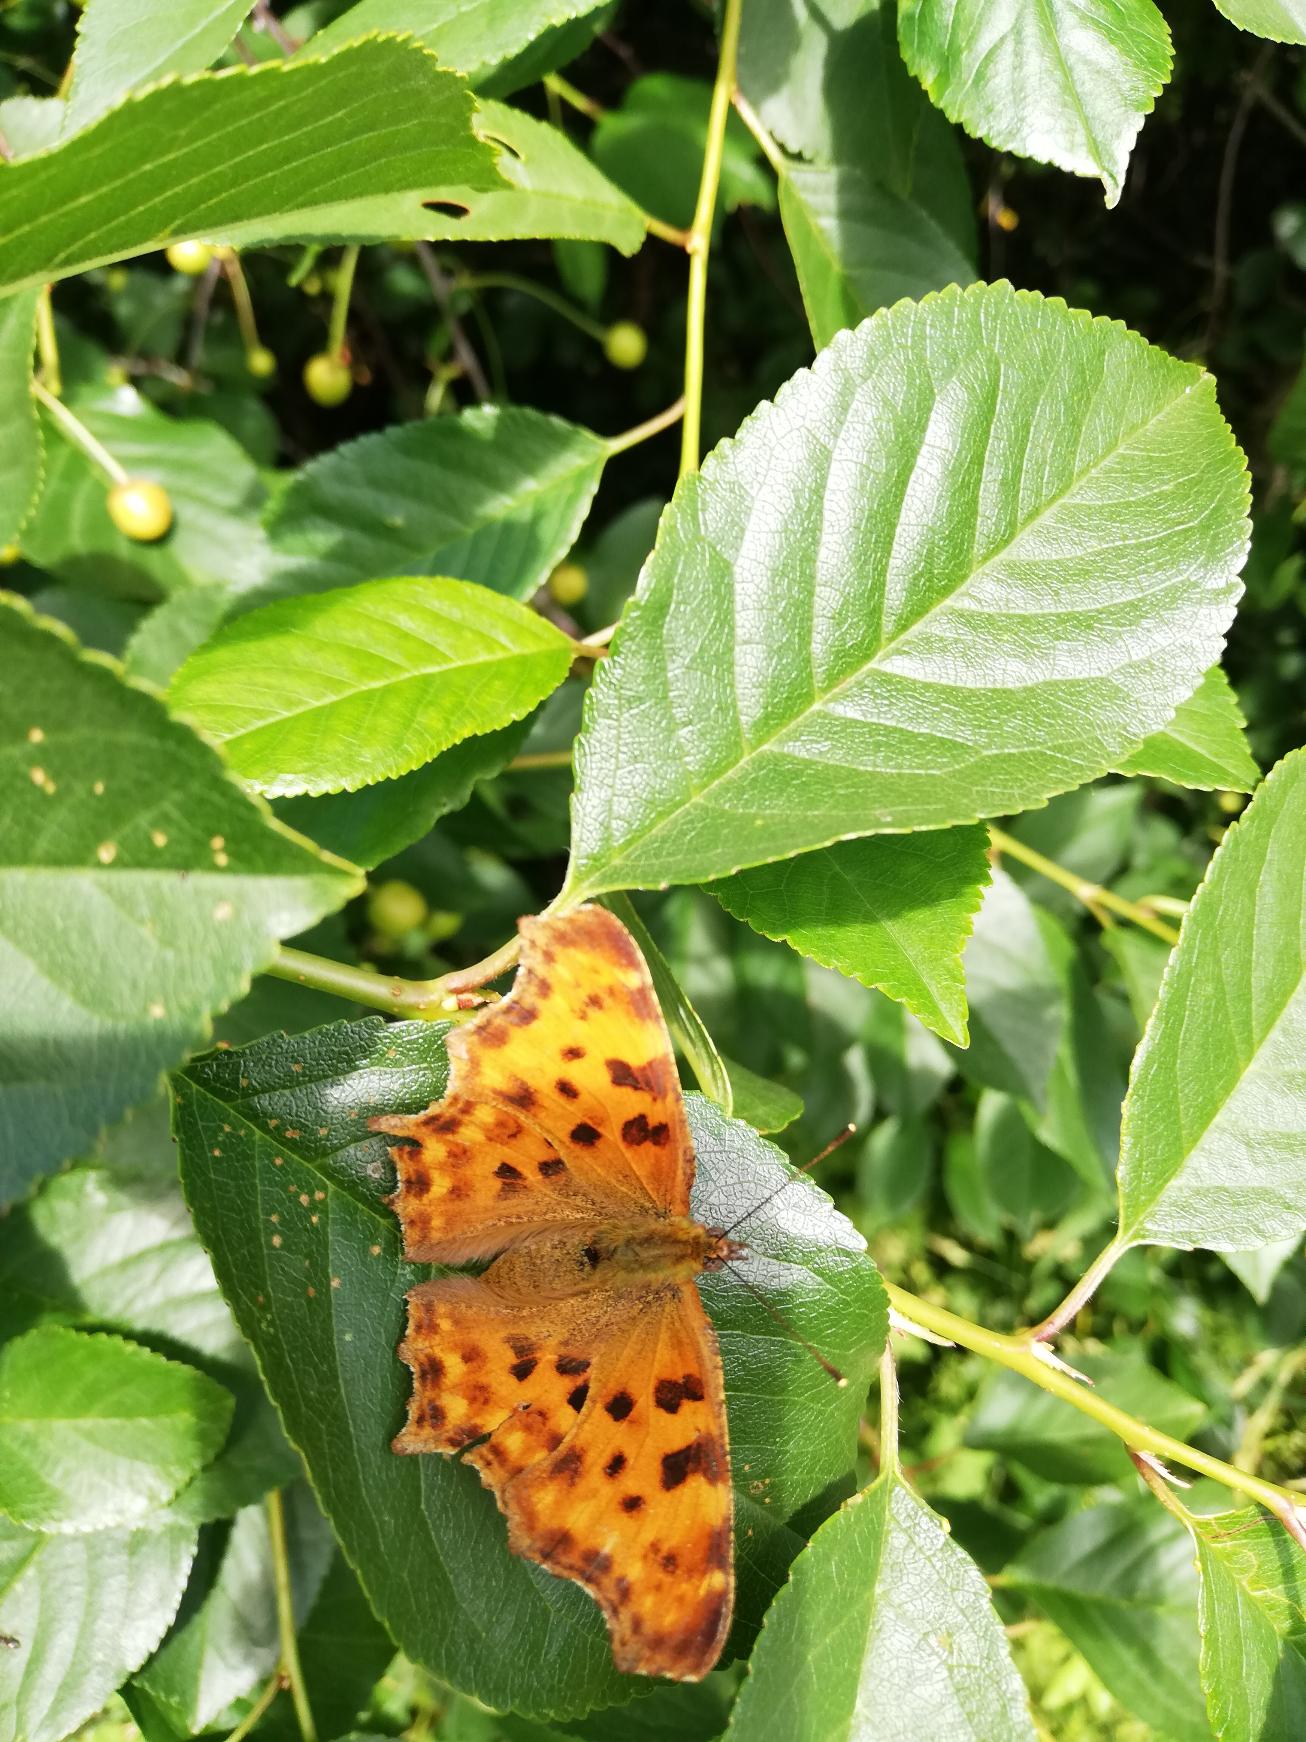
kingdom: Animalia
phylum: Arthropoda
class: Insecta
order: Lepidoptera
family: Nymphalidae
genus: Polygonia
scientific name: Polygonia c-album
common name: Det hvide C
